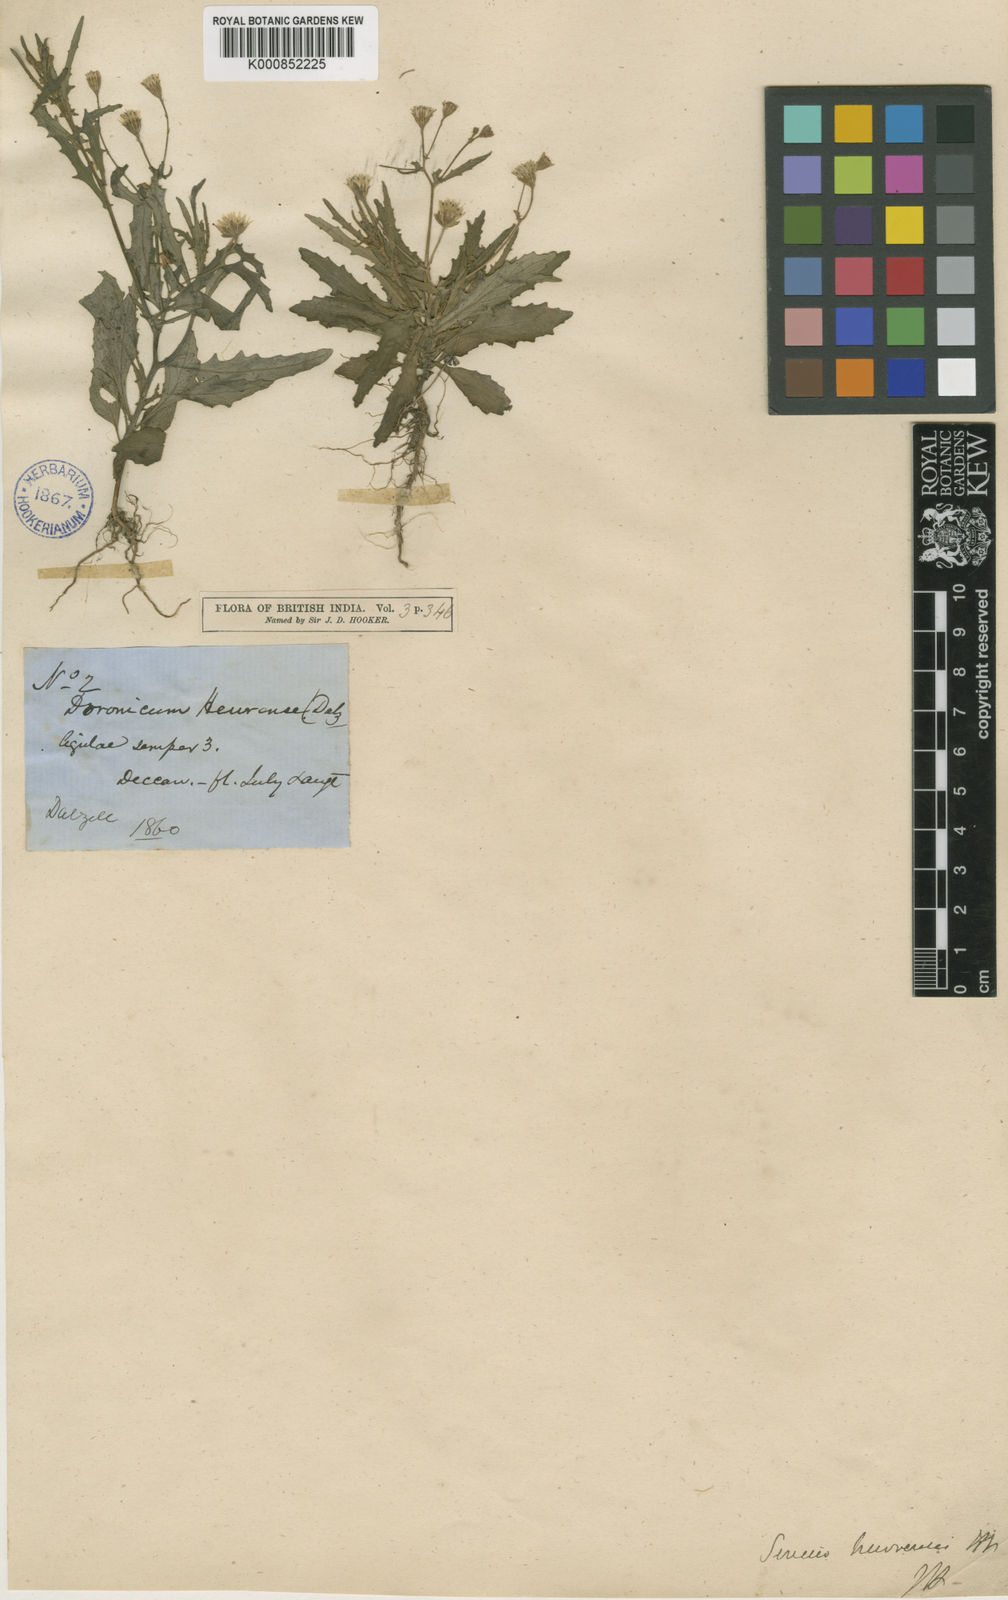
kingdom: Plantae
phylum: Tracheophyta
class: Magnoliopsida
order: Asterales
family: Asteraceae
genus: Senecio
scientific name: Senecio hewrensis
